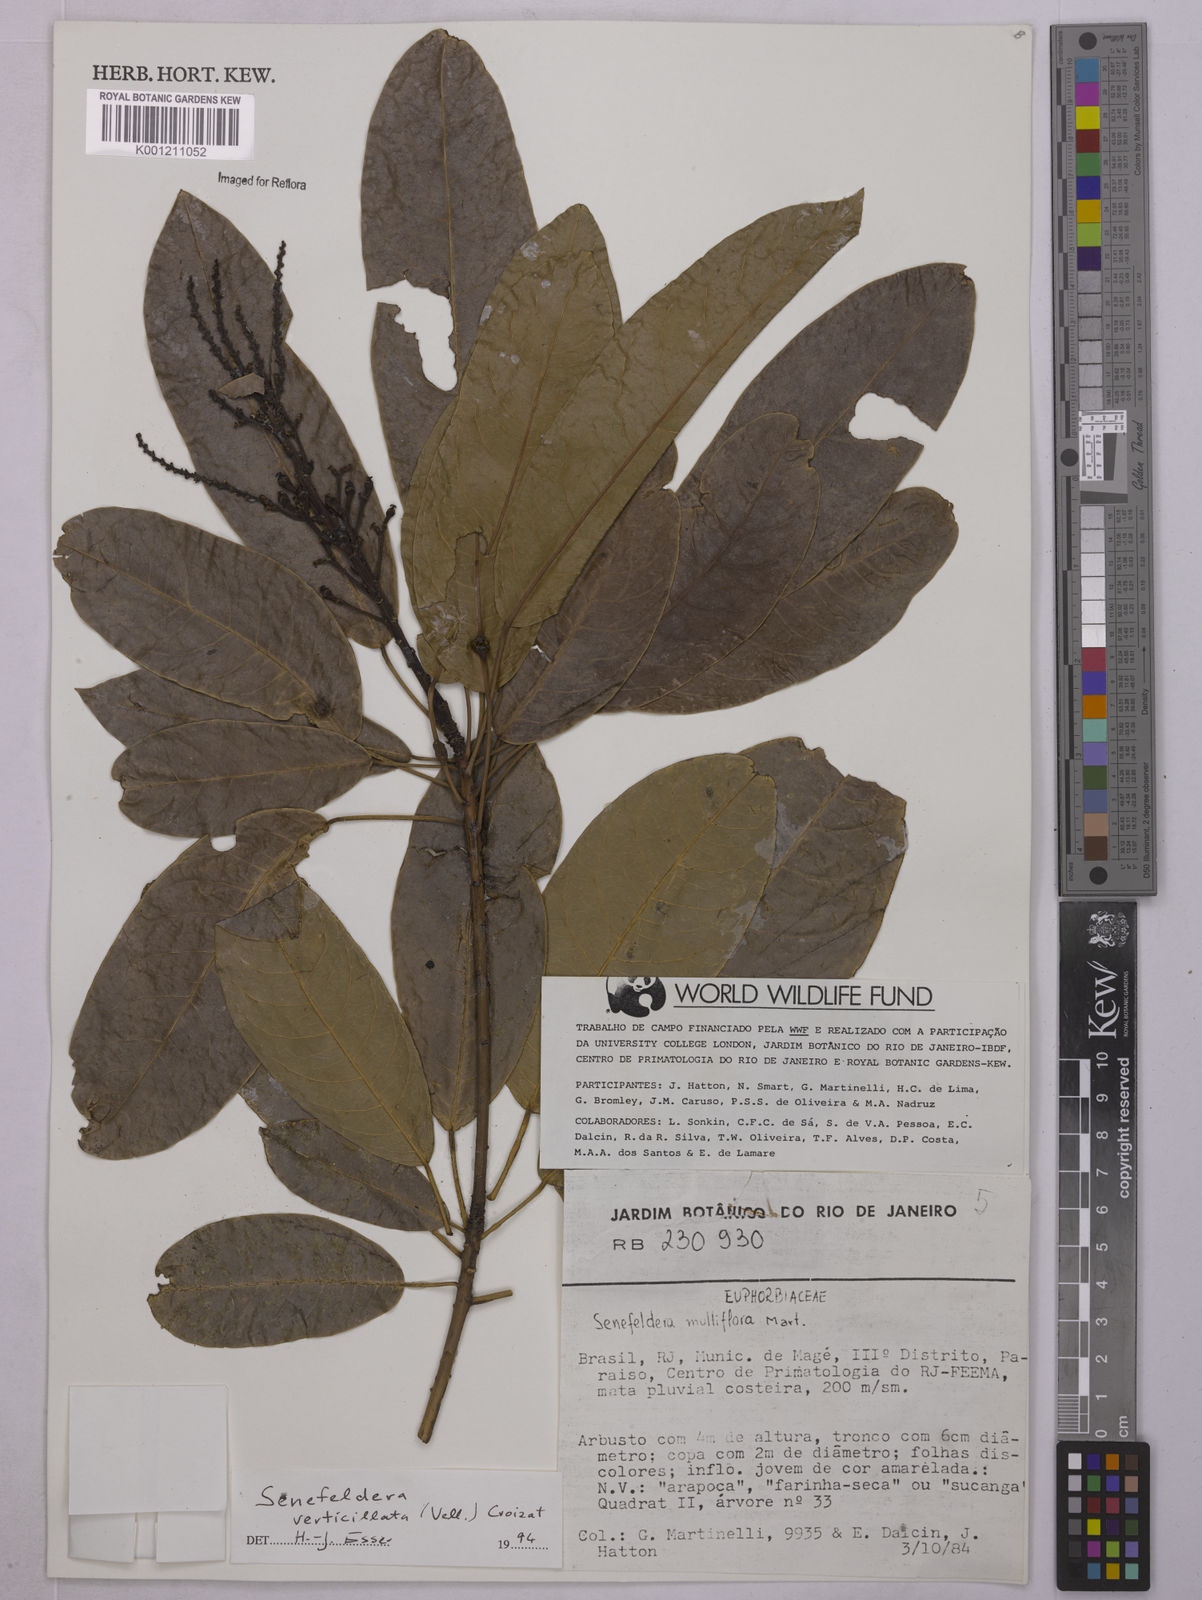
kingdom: Plantae
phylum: Tracheophyta
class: Magnoliopsida
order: Malpighiales
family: Euphorbiaceae
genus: Senefeldera
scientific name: Senefeldera verticillata
